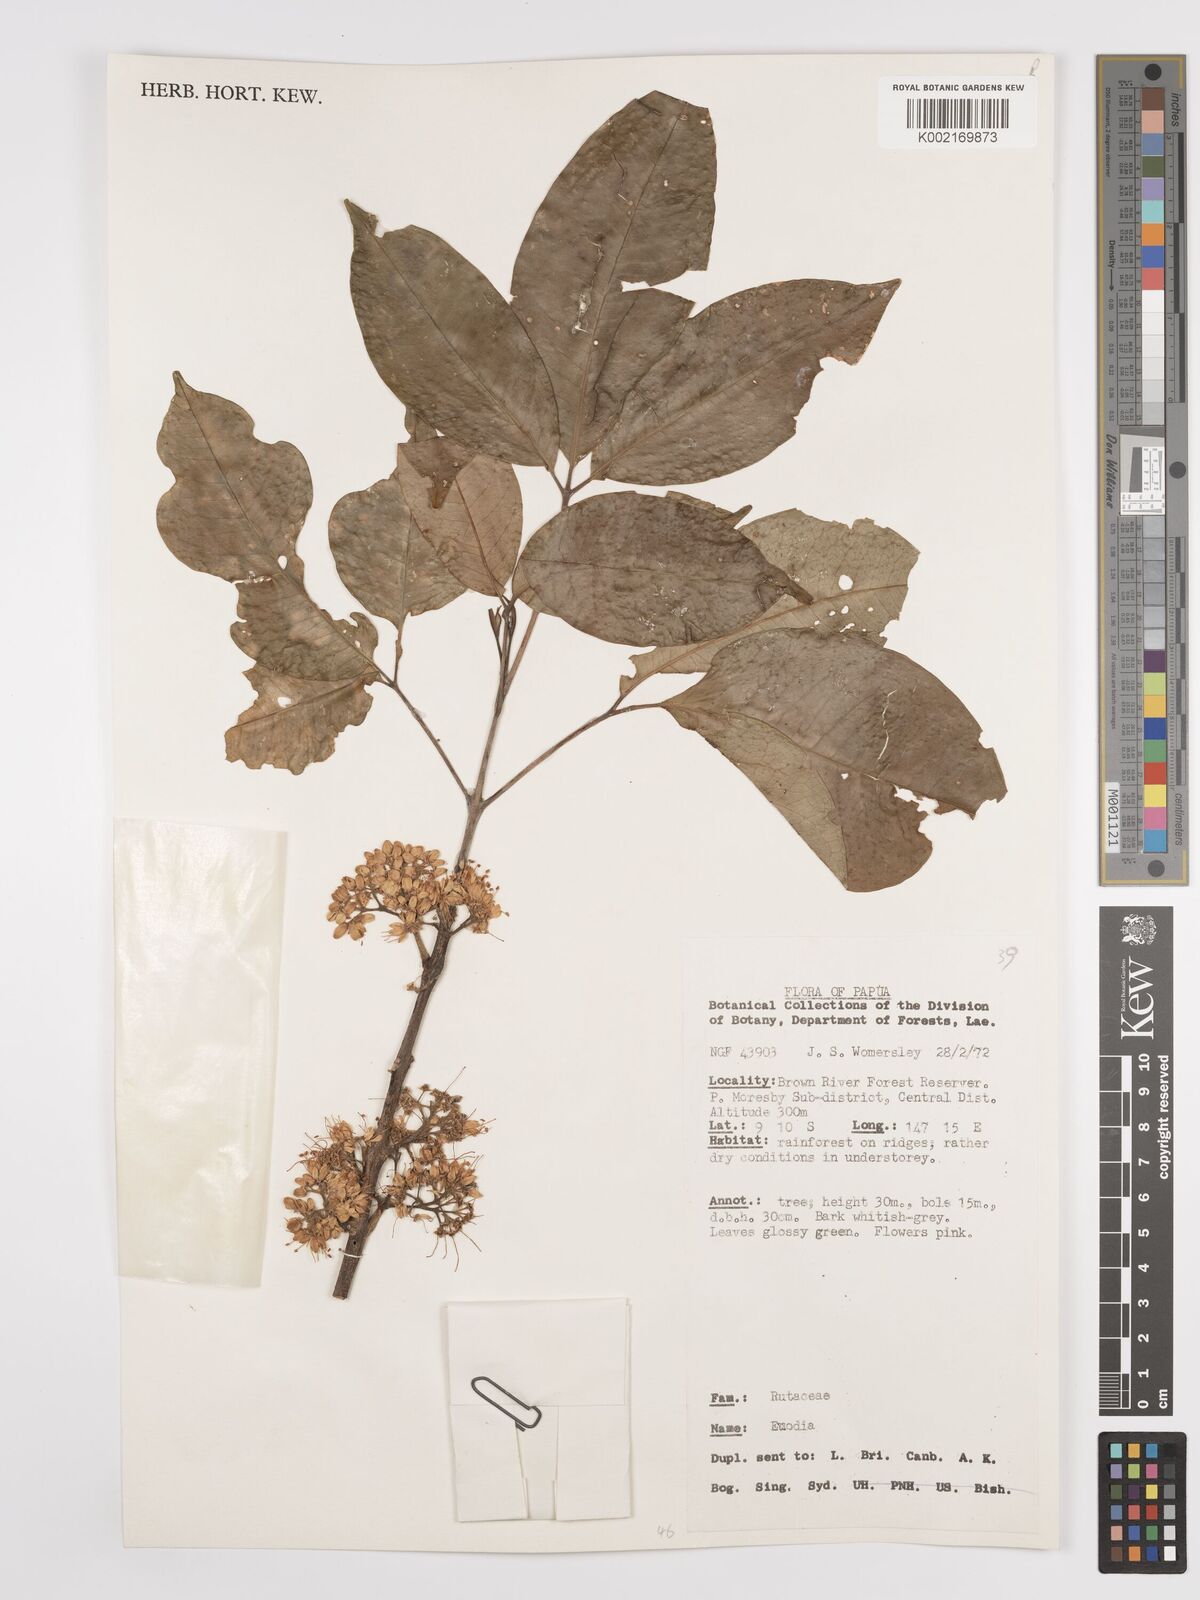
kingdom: Plantae
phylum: Tracheophyta
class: Magnoliopsida
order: Sapindales
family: Rutaceae
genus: Euodia
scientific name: Euodia
